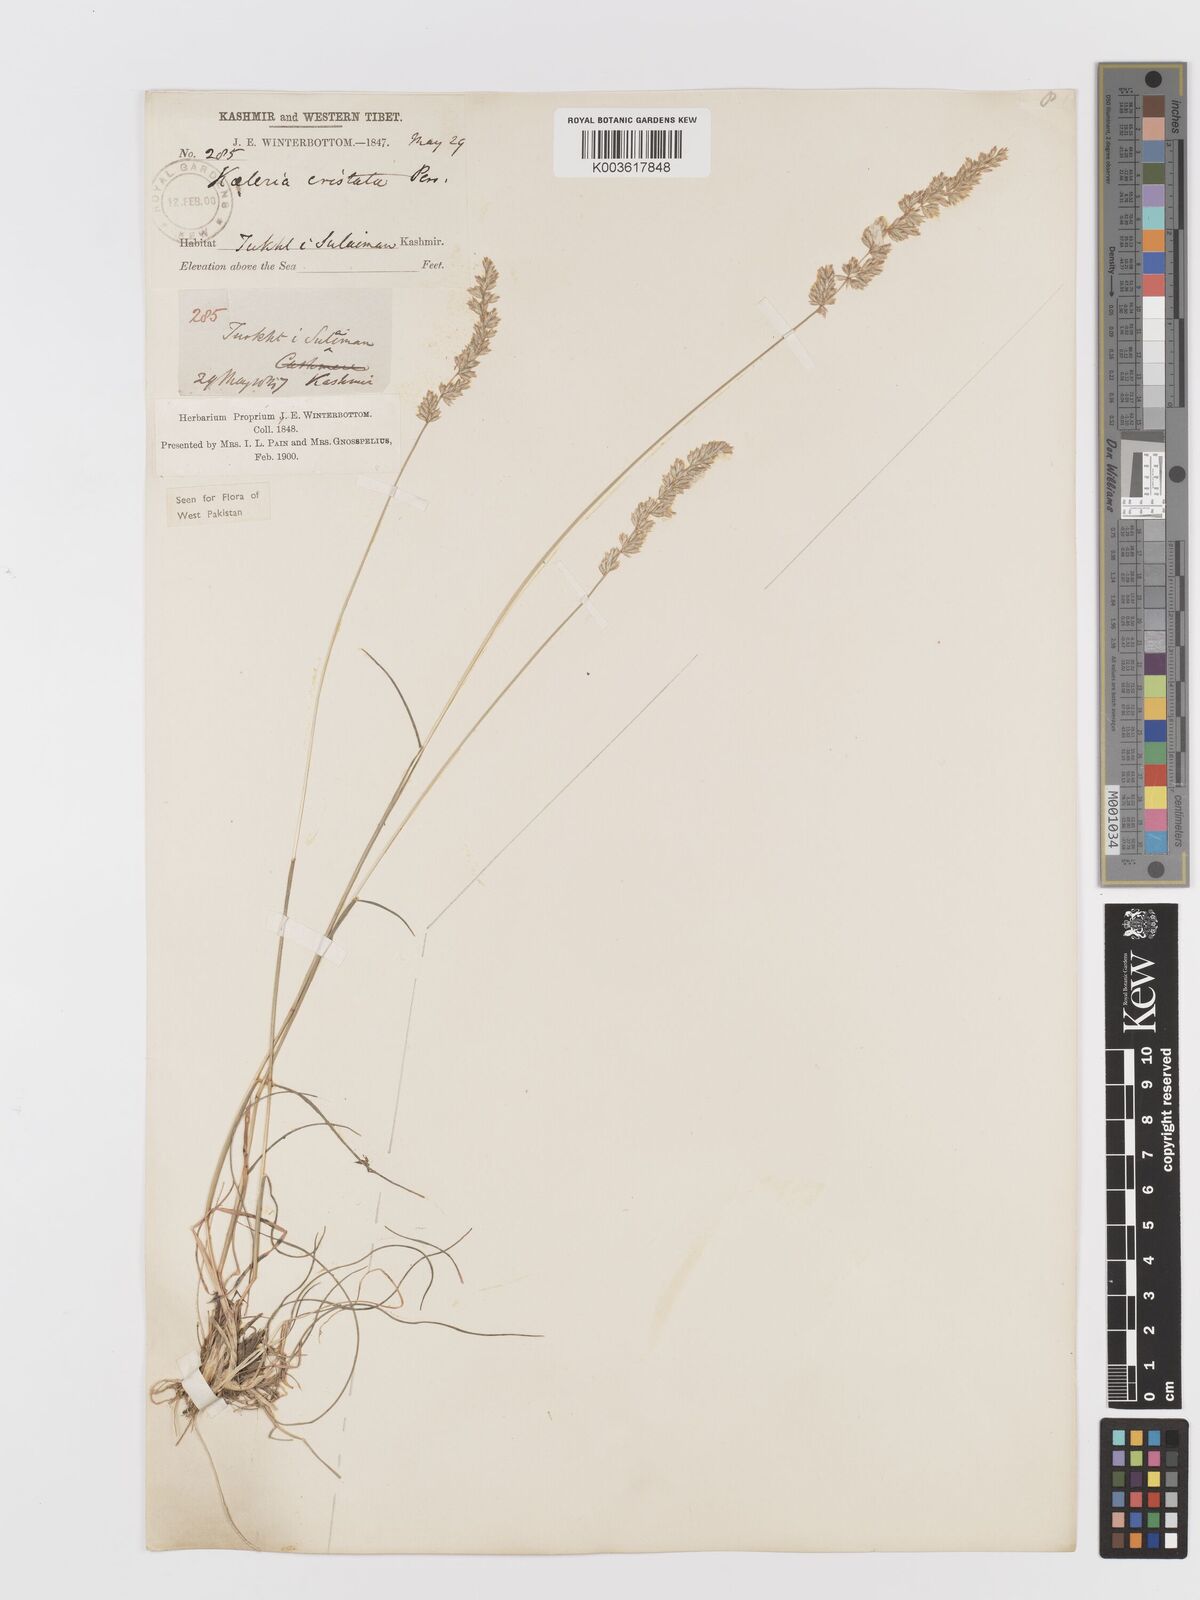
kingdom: Plantae
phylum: Tracheophyta
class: Liliopsida
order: Poales
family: Poaceae
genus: Koeleria
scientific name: Koeleria macrantha
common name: Crested hair-grass
